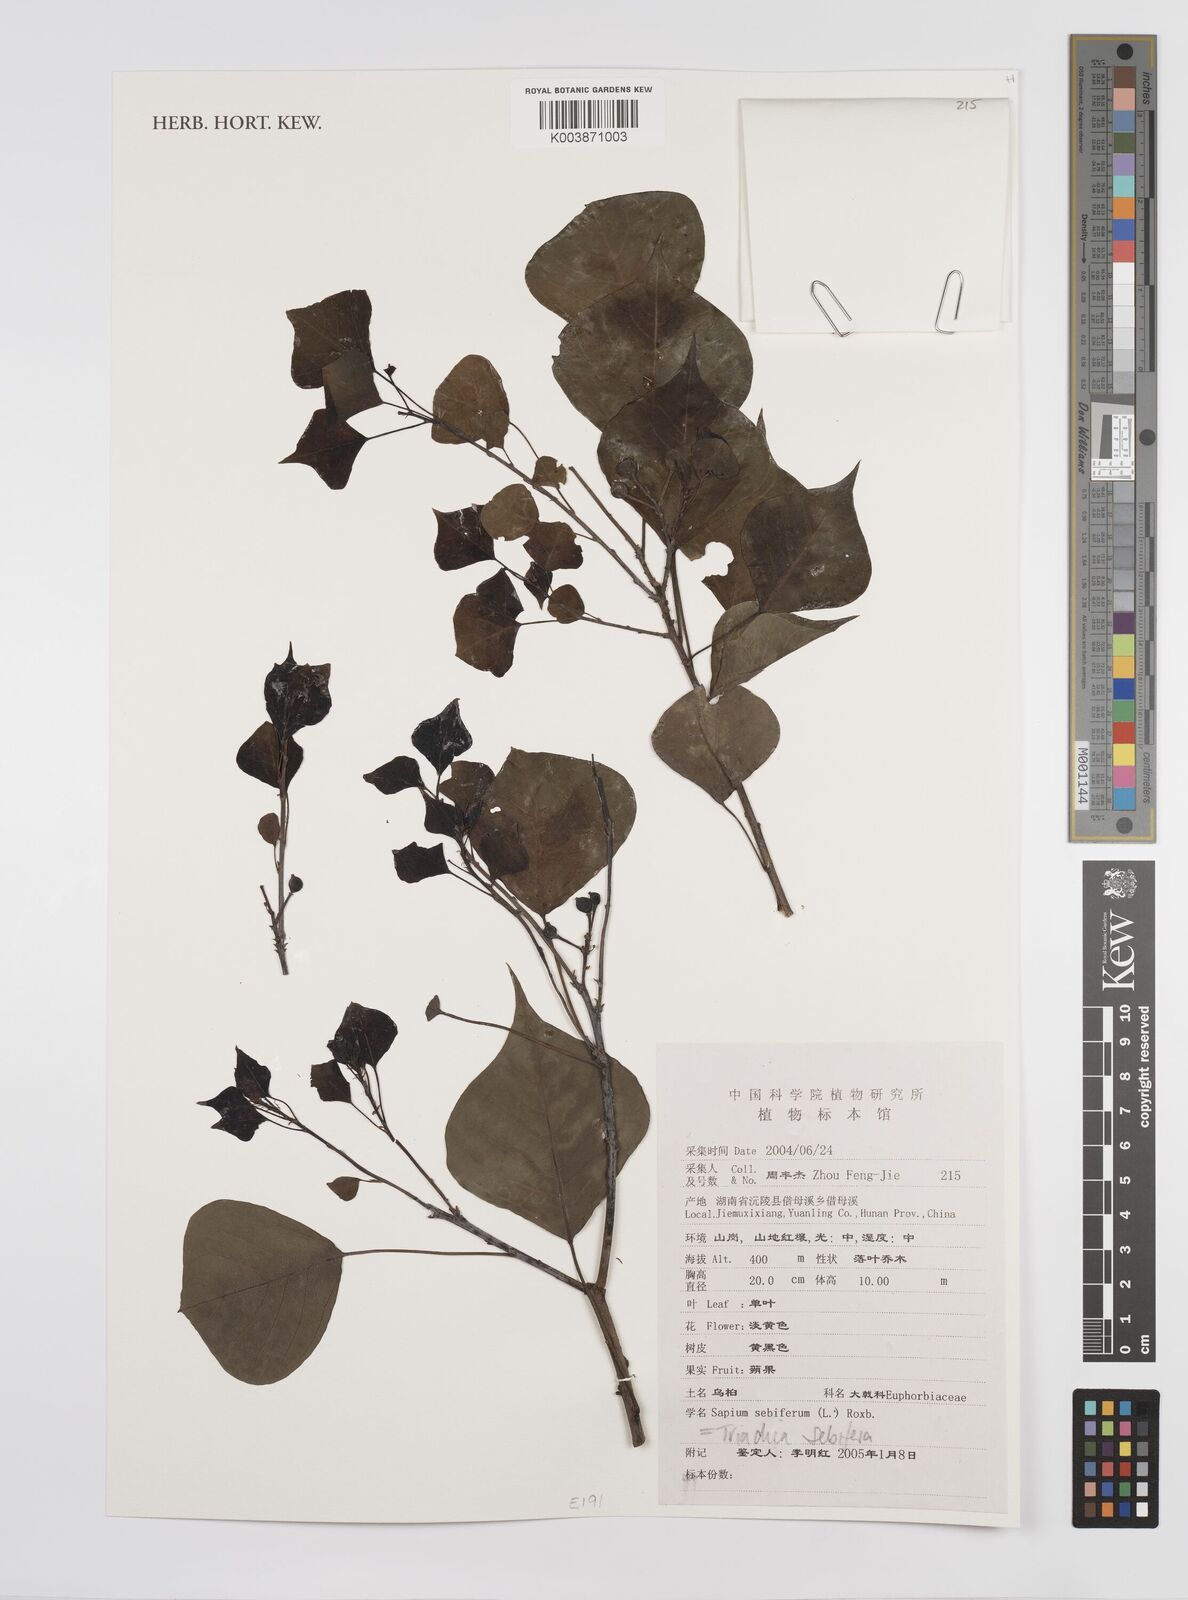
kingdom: Plantae
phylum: Tracheophyta
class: Magnoliopsida
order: Malpighiales
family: Euphorbiaceae
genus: Triadica
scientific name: Triadica sebifera
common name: Chinese tallow
